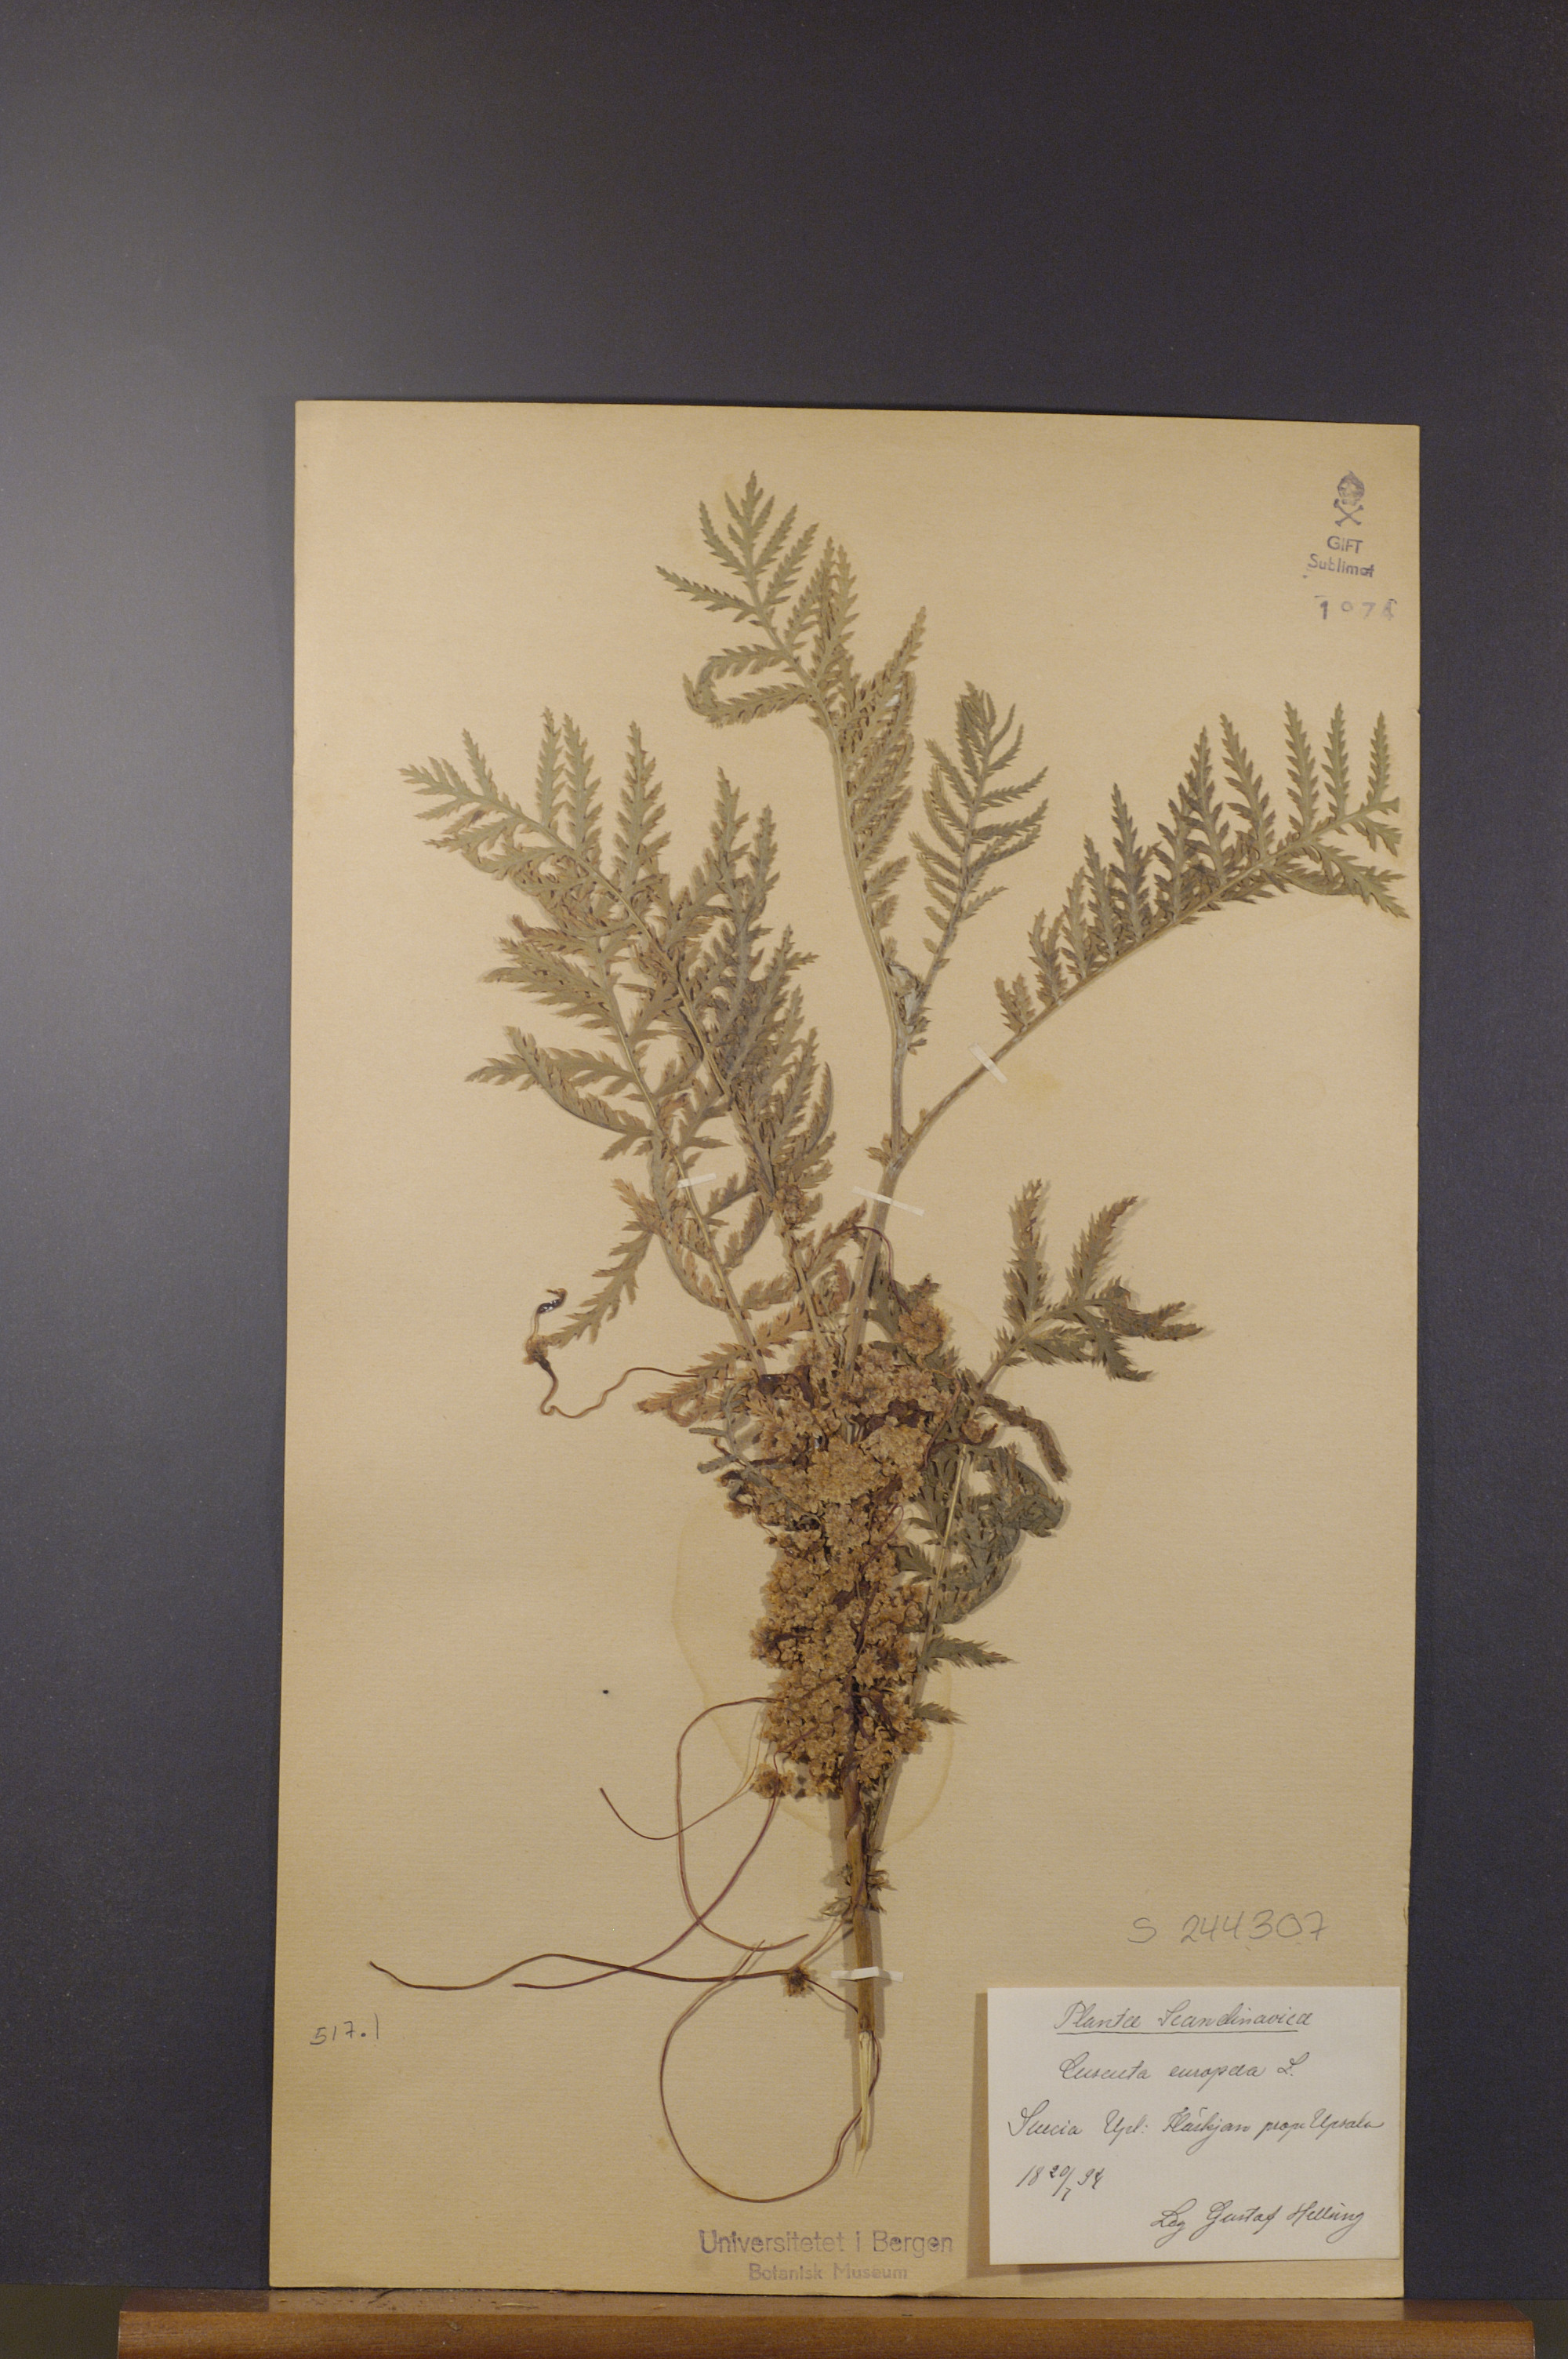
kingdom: Plantae
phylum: Tracheophyta
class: Magnoliopsida
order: Solanales
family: Convolvulaceae
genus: Cuscuta
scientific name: Cuscuta europaea
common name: Greater dodder
